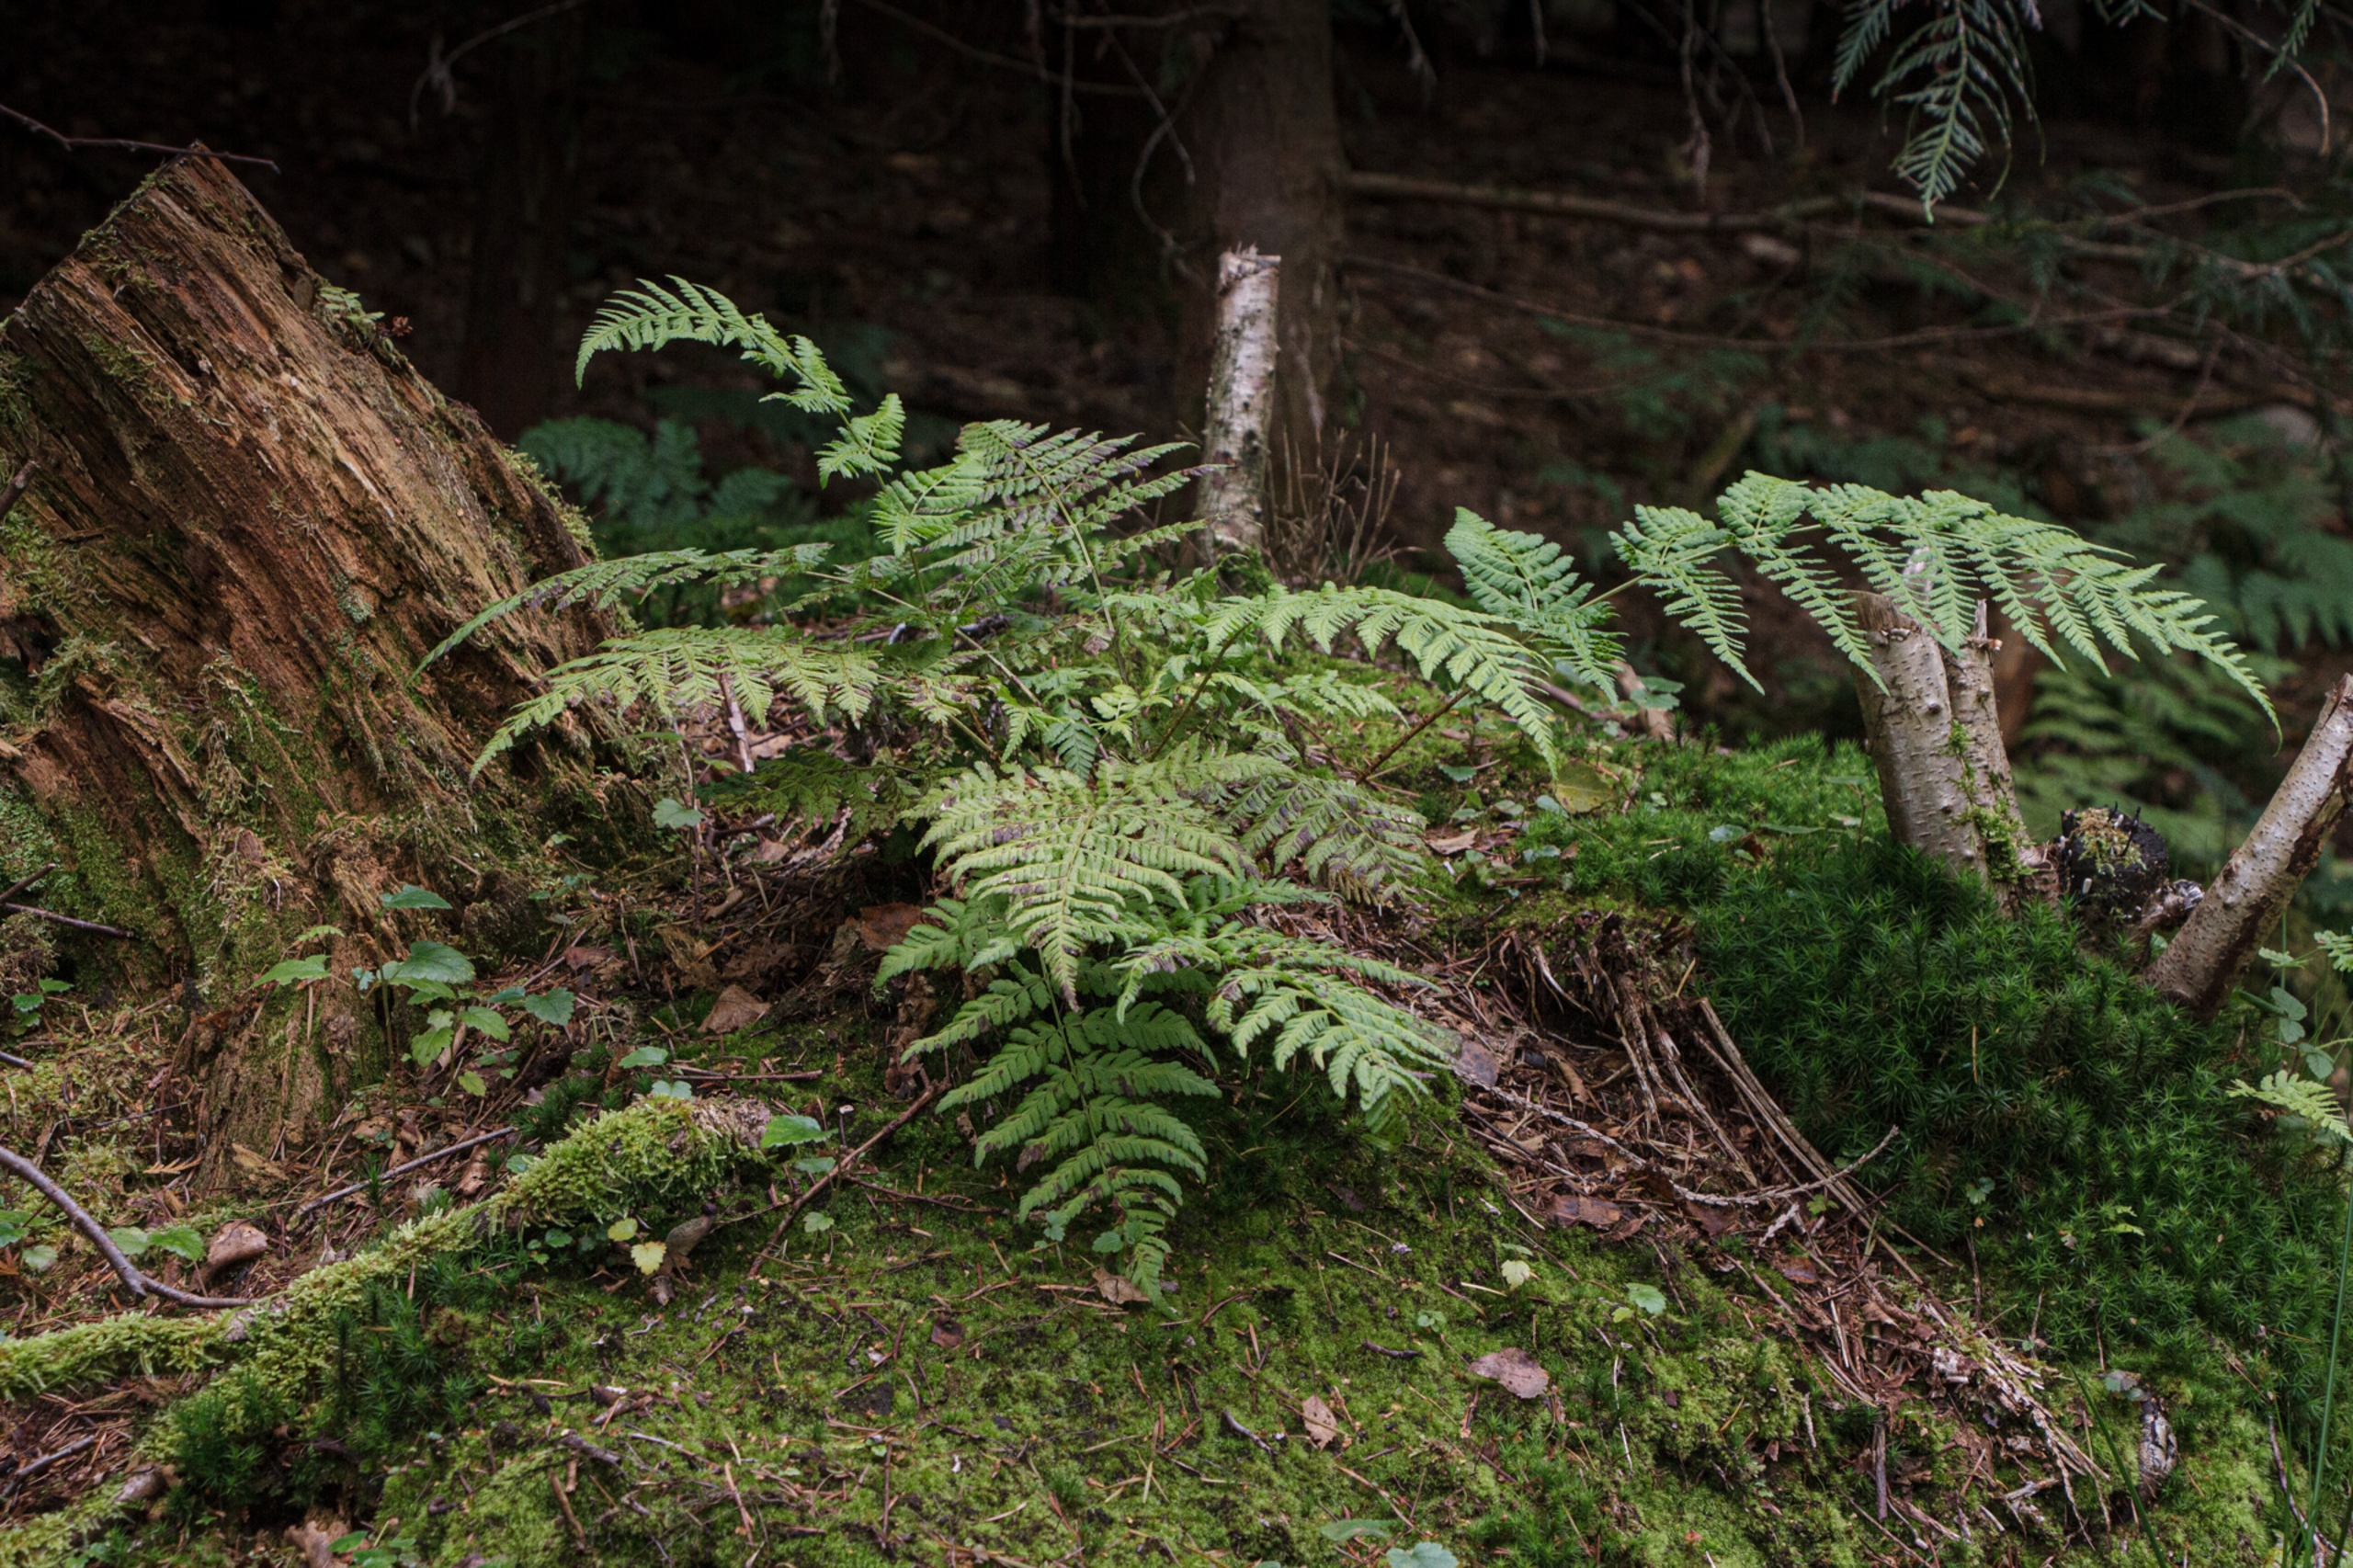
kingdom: Plantae
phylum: Tracheophyta
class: Polypodiopsida
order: Polypodiales
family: Dryopteridaceae
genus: Dryopteris
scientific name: Dryopteris dilatata
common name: Bredbladet mangeløv
